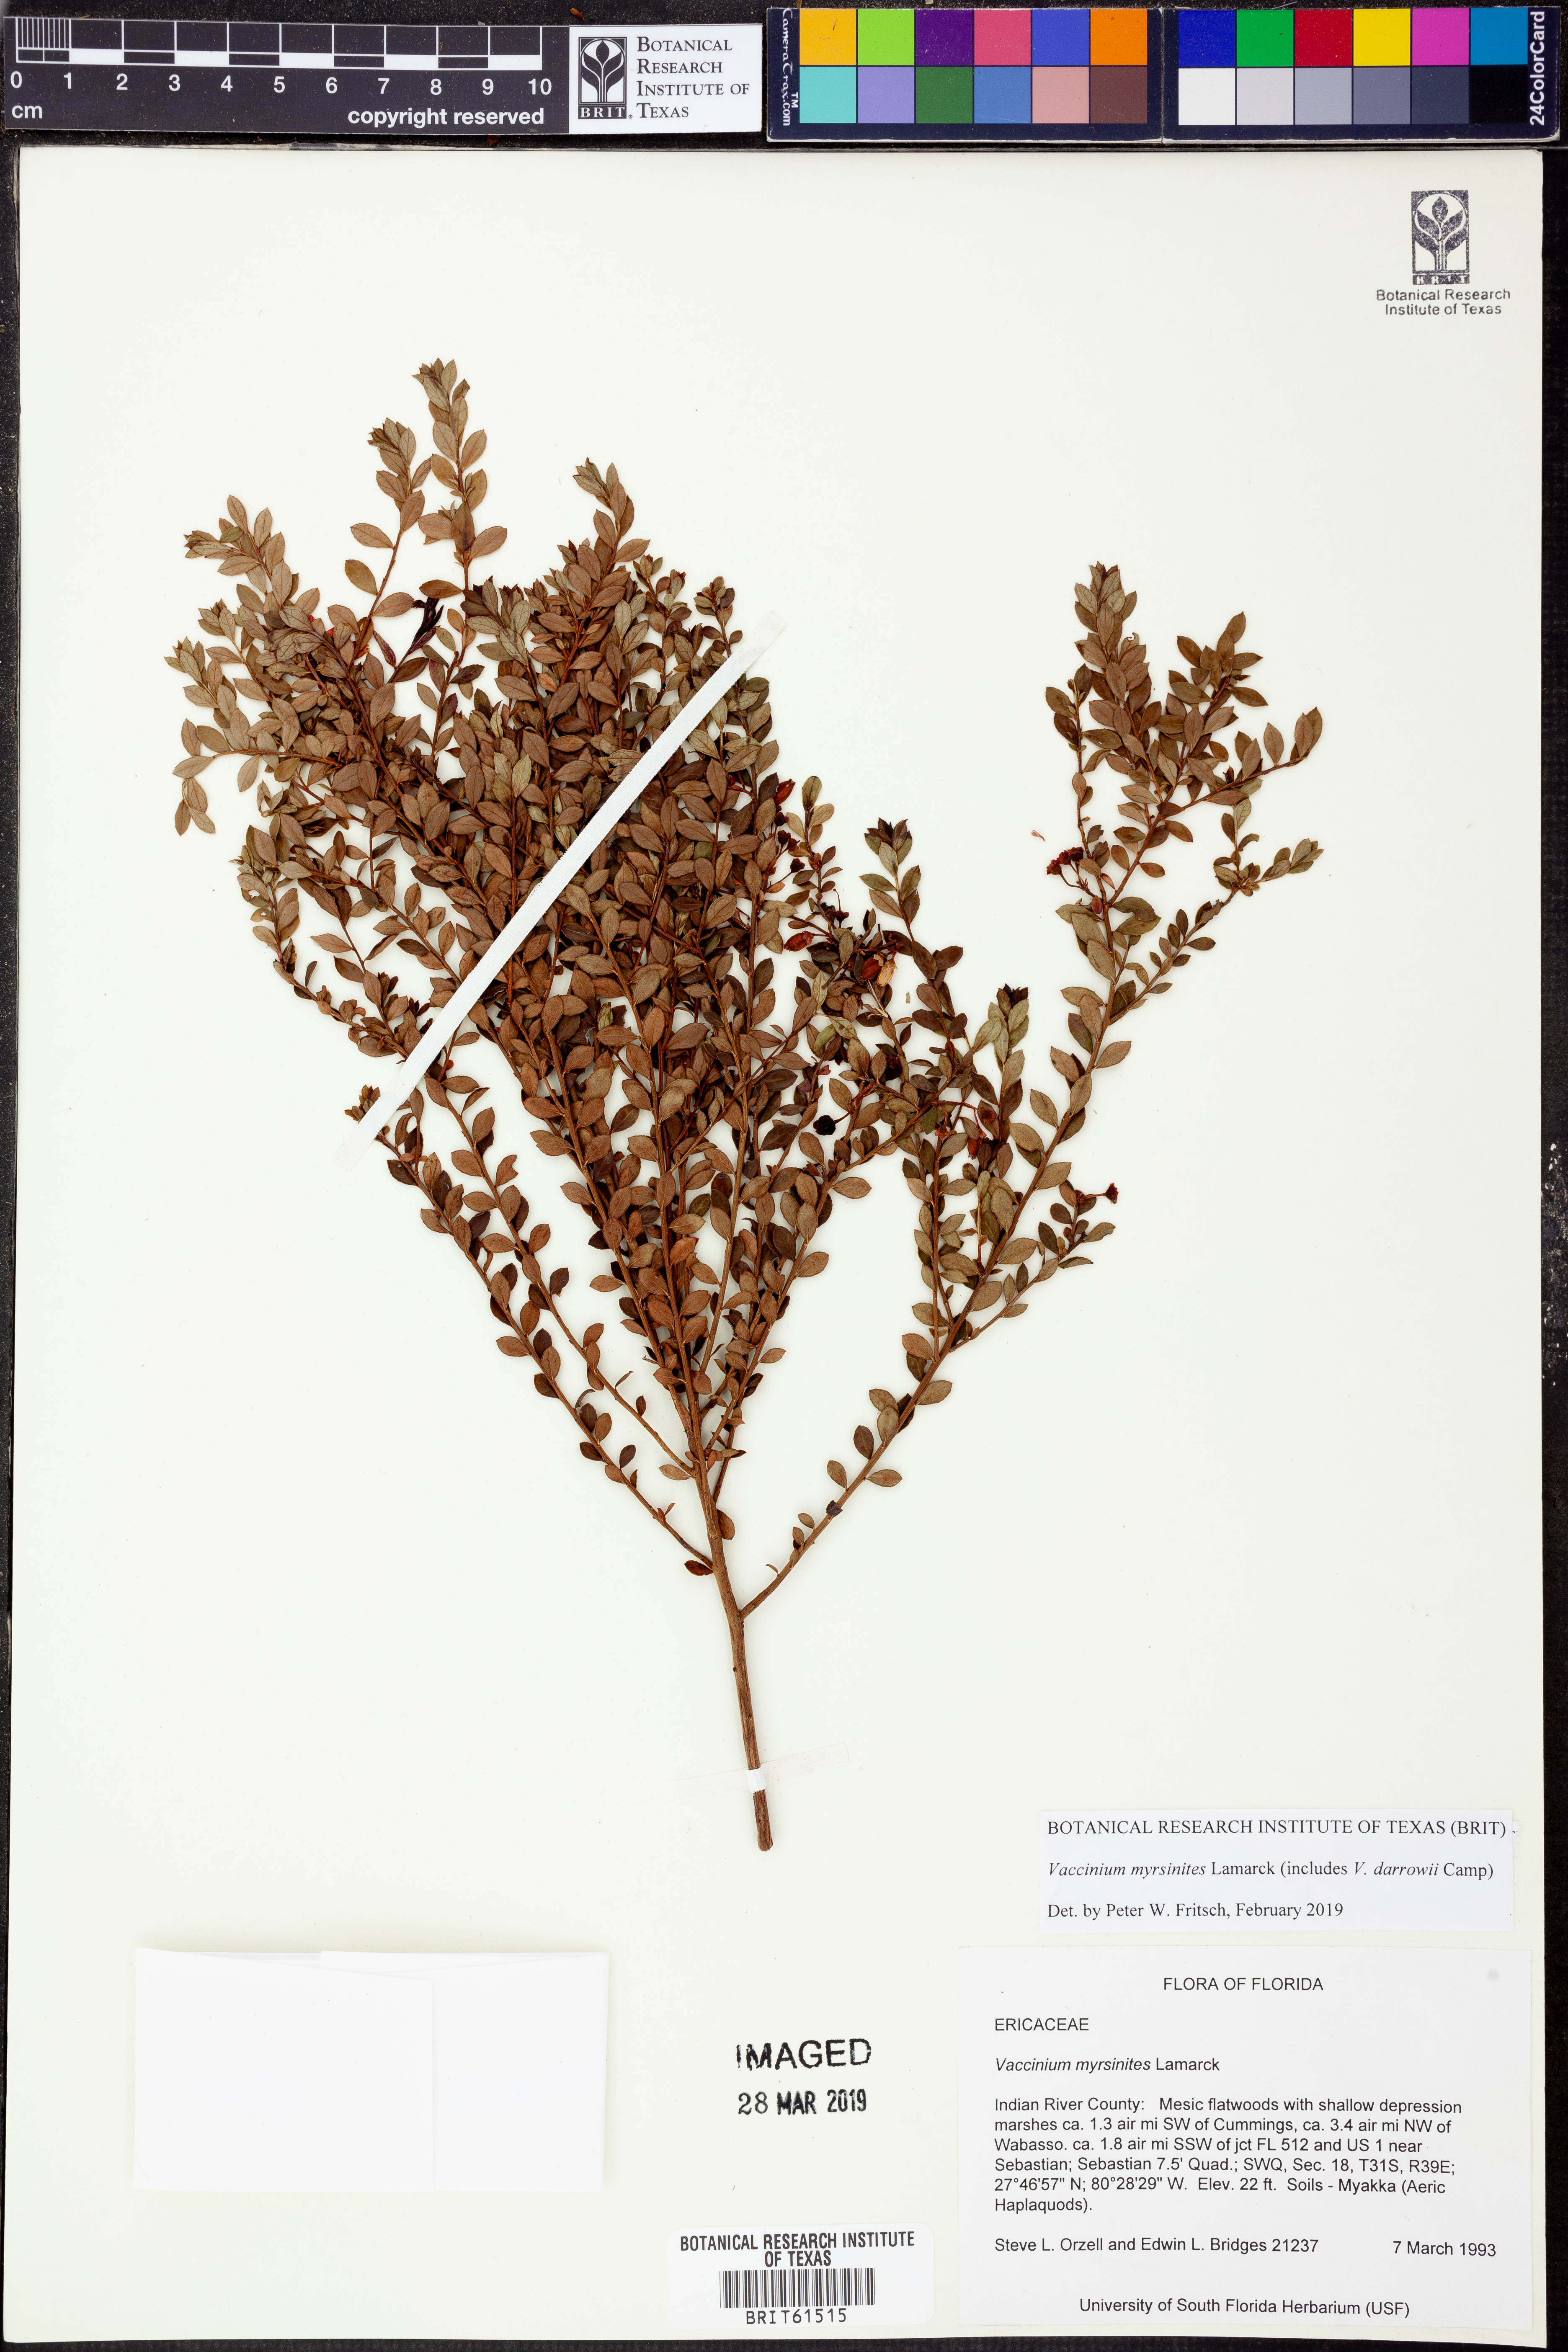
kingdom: Plantae
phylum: Tracheophyta
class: Magnoliopsida
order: Ericales
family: Ericaceae
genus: Vaccinium
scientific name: Vaccinium myrsinites
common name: Evergreen blueberry
